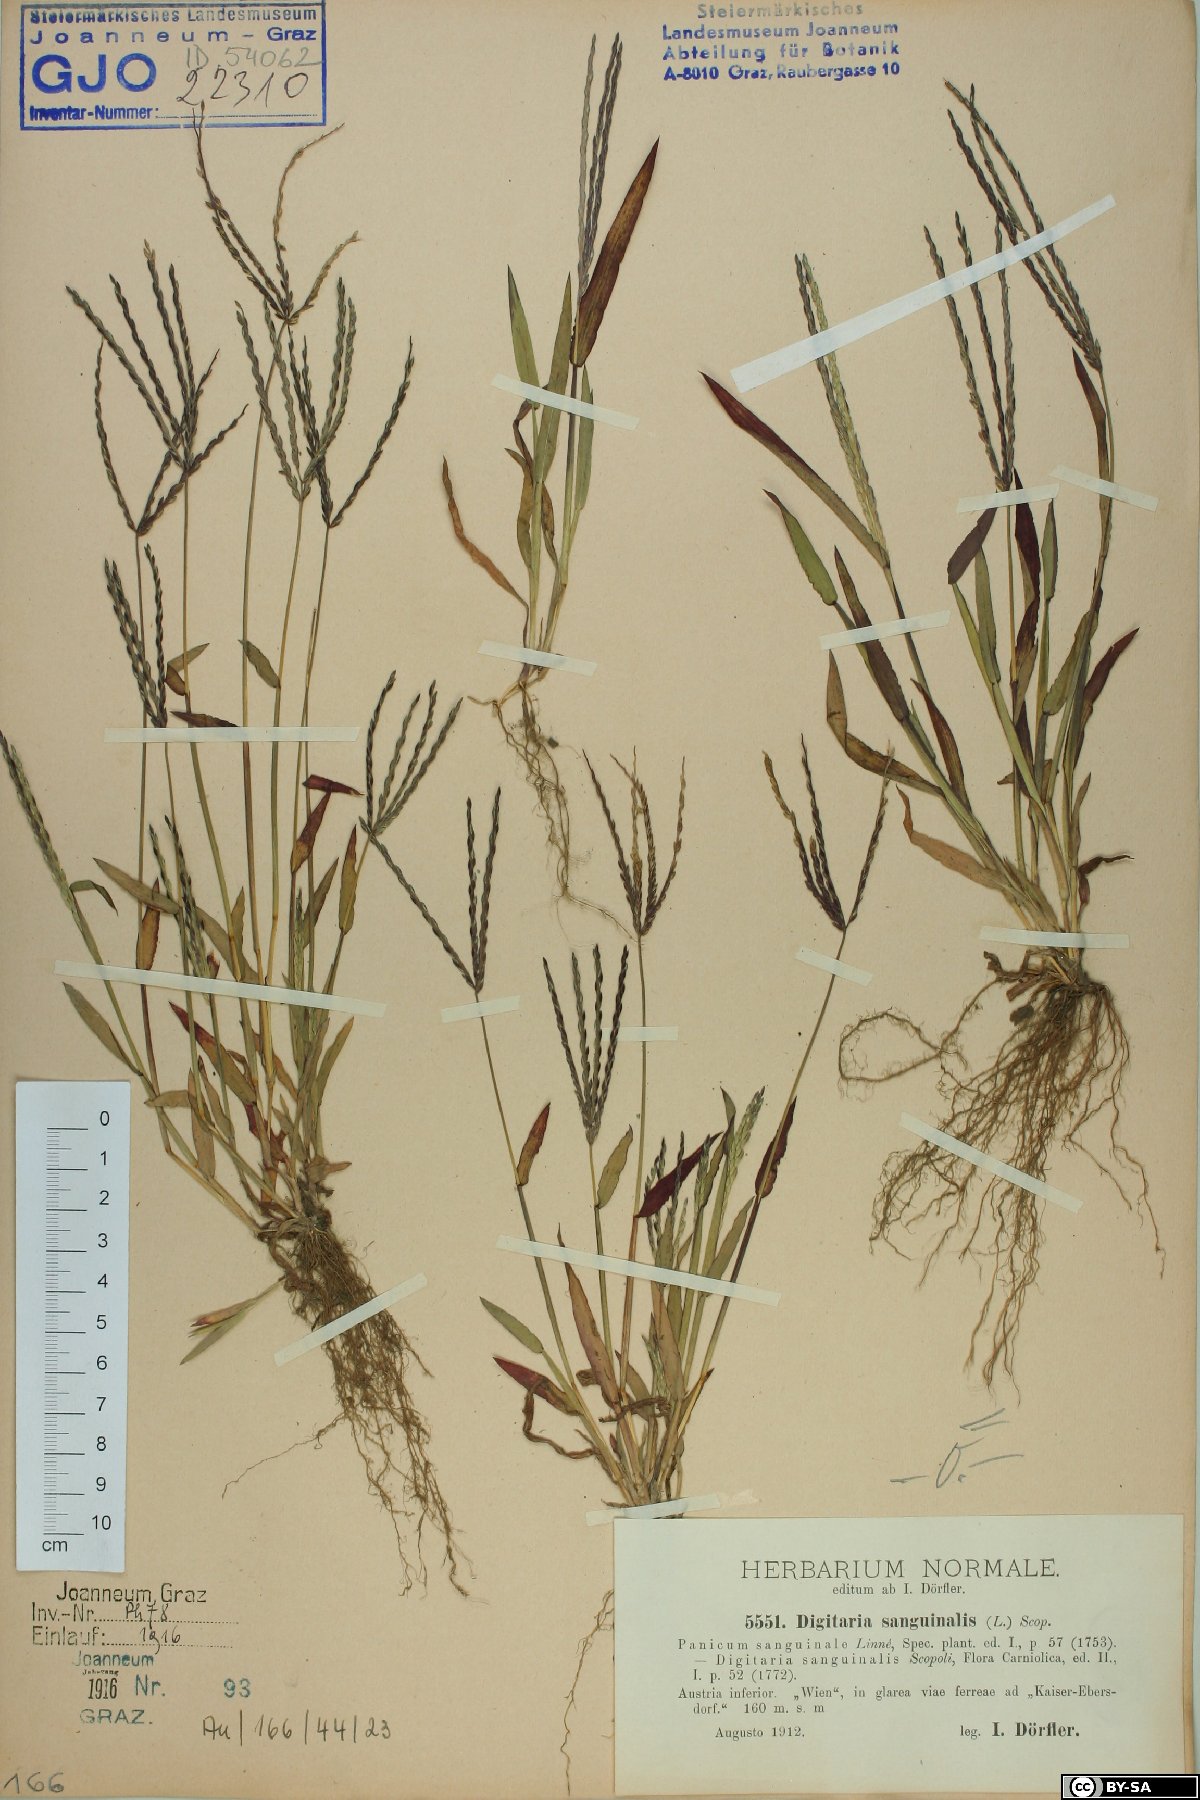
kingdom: Plantae
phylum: Tracheophyta
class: Liliopsida
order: Poales
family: Poaceae
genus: Digitaria
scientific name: Digitaria sanguinalis
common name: Hairy crabgrass
